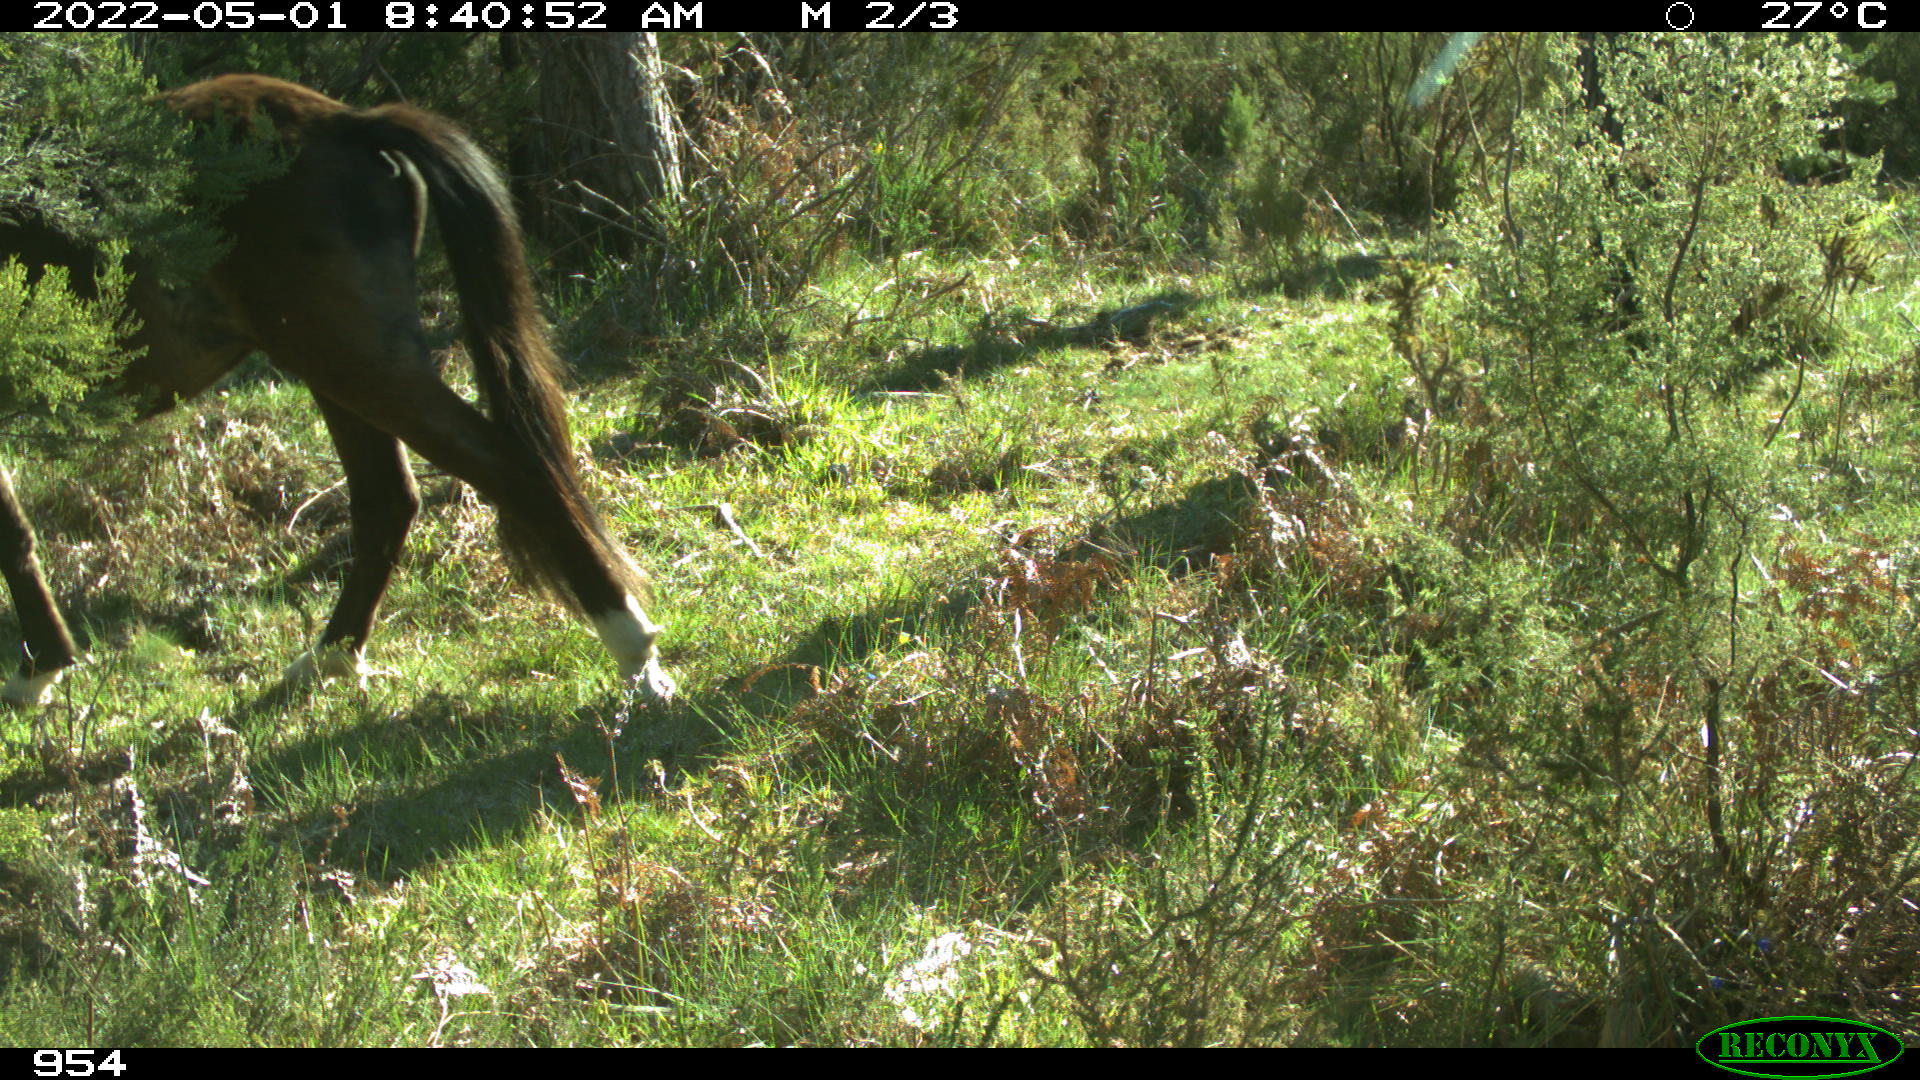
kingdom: Animalia
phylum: Chordata
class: Mammalia
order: Perissodactyla
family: Equidae
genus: Equus
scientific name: Equus caballus
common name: Horse
